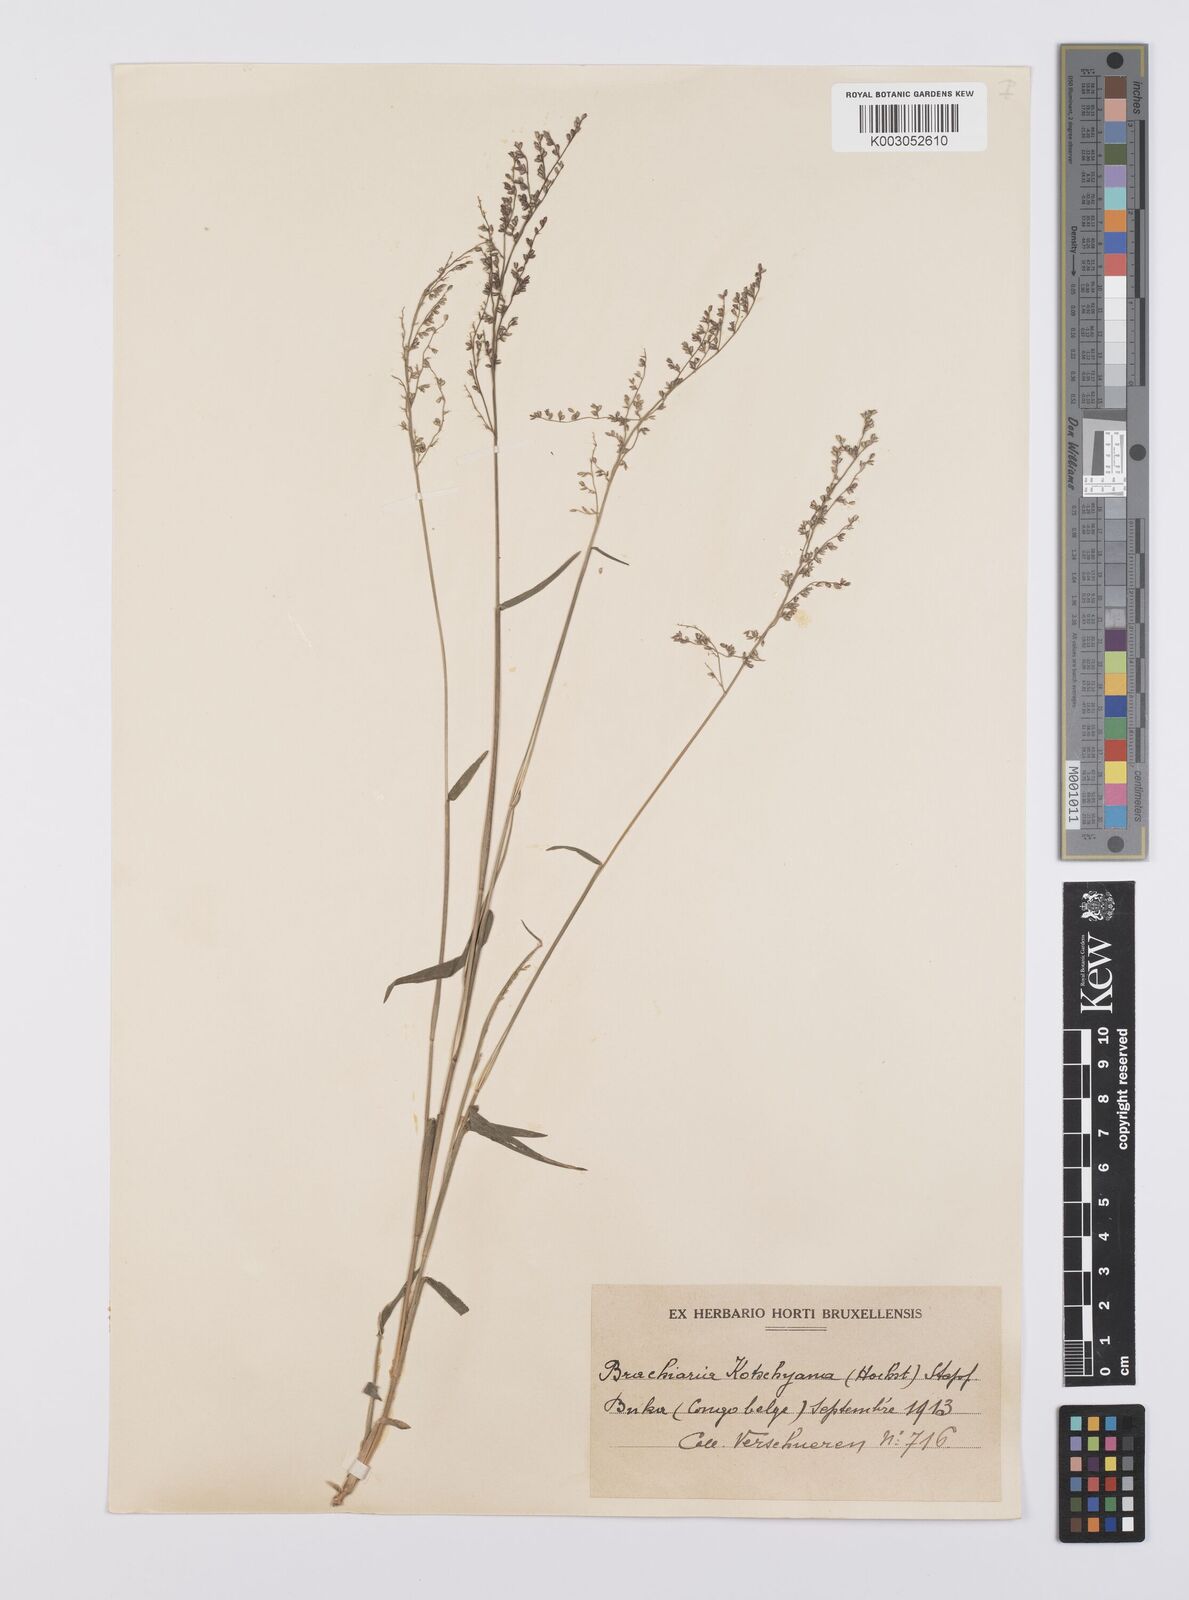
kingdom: Plantae
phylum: Tracheophyta
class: Liliopsida
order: Poales
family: Poaceae
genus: Urochloa
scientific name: Urochloa comata
